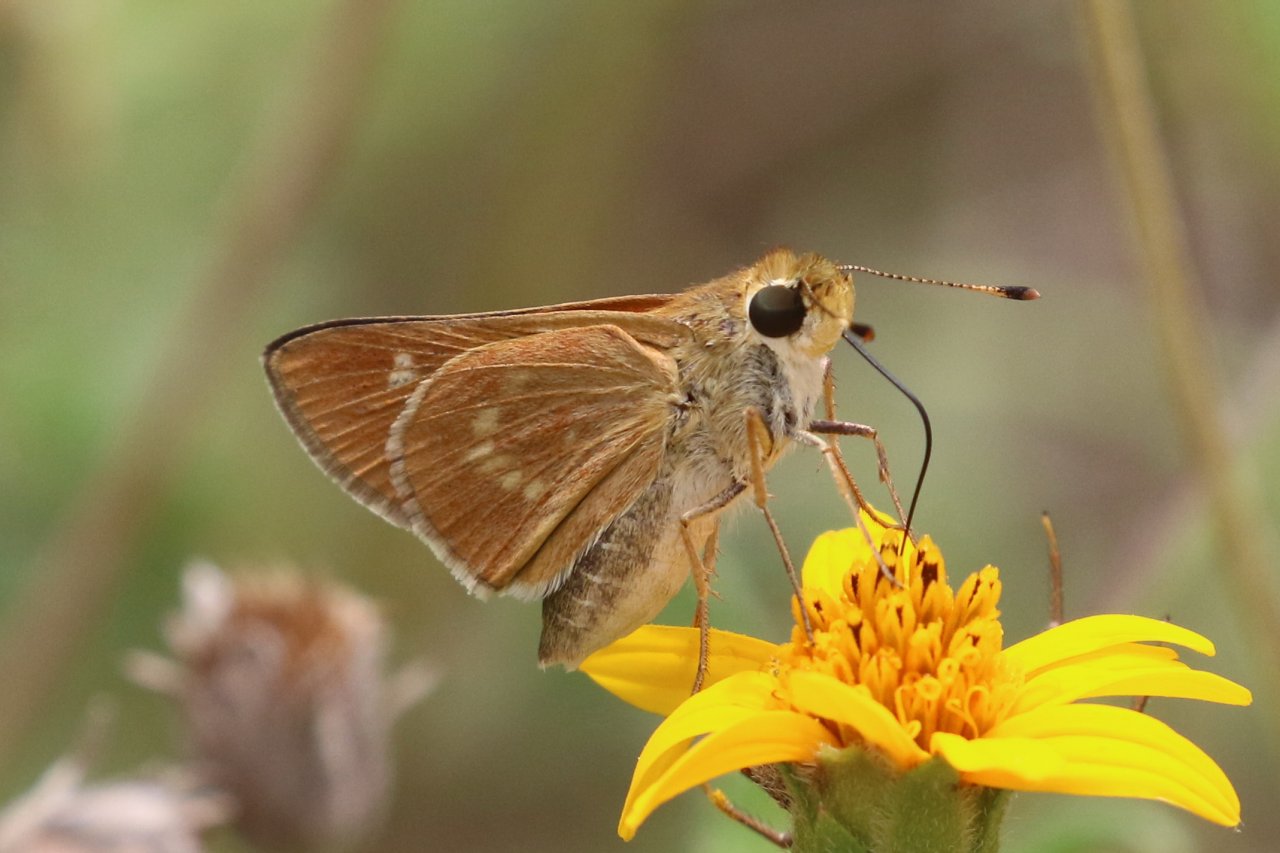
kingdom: Animalia
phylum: Arthropoda
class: Insecta
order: Lepidoptera
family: Hesperiidae
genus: Mellana
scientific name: Mellana eulogius
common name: Common Mellana
